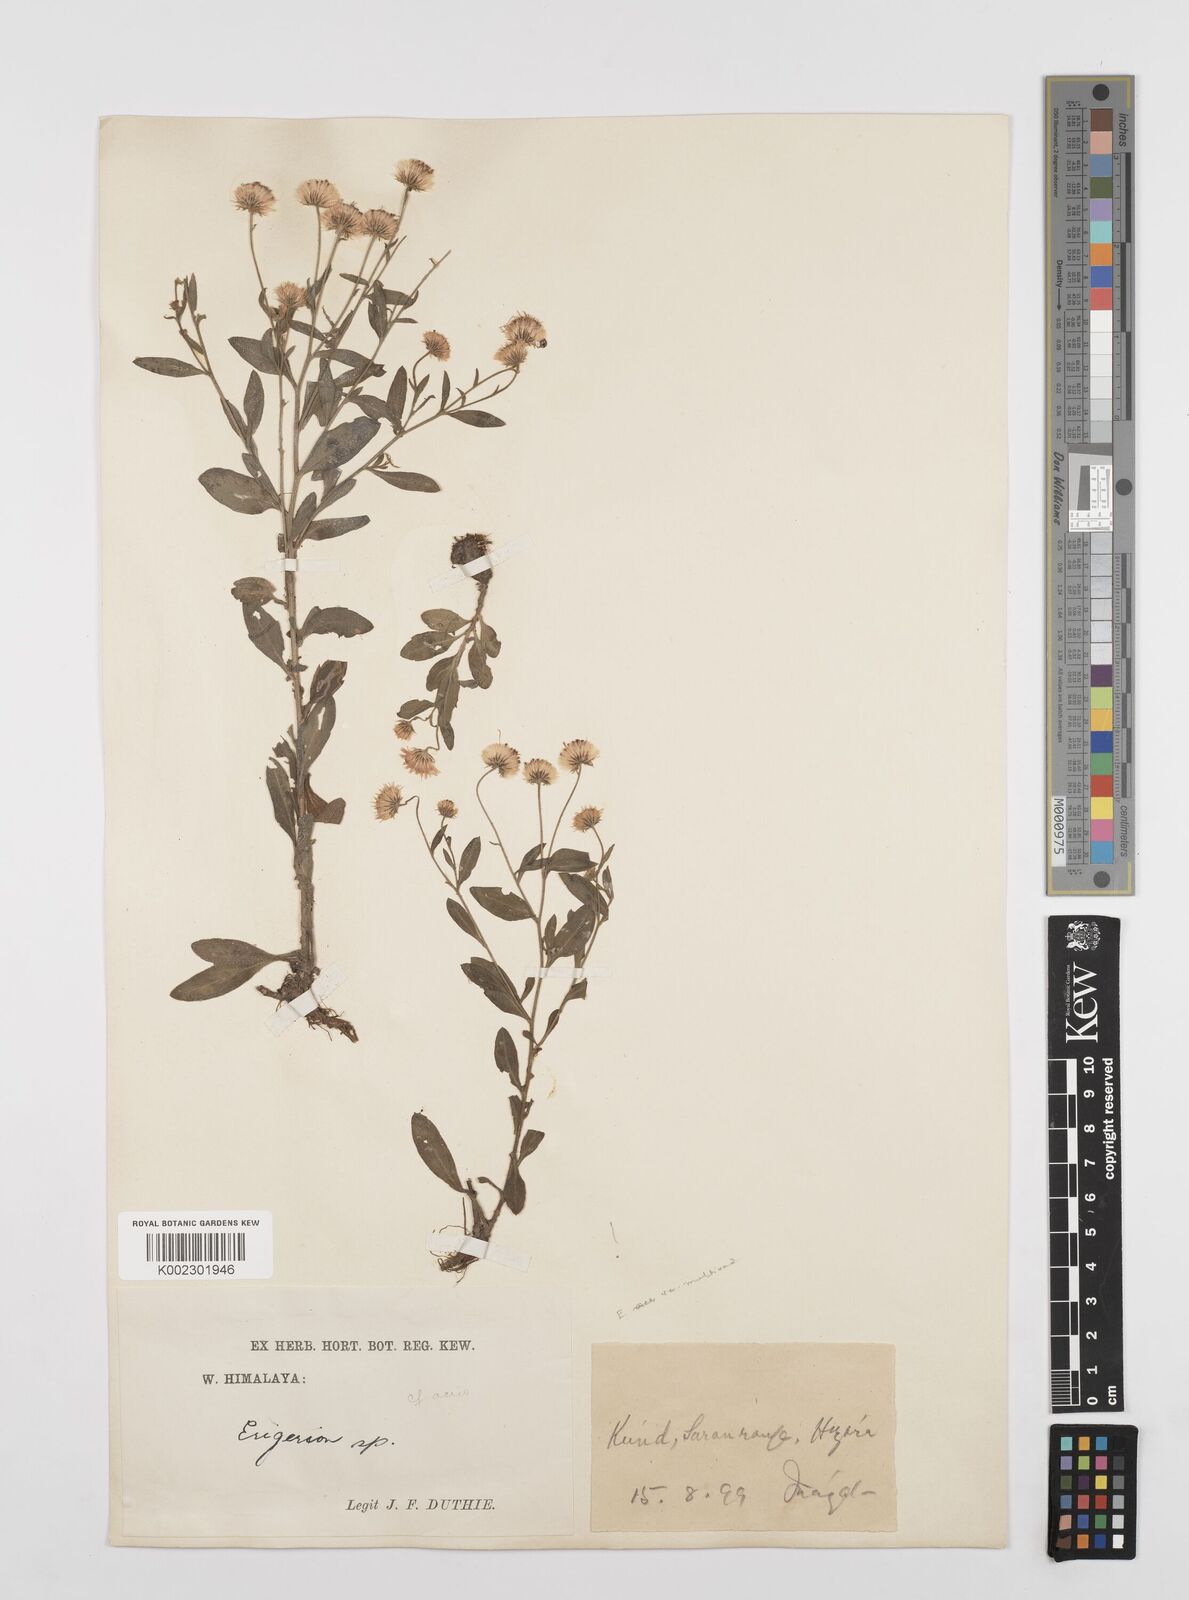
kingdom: Plantae
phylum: Tracheophyta
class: Magnoliopsida
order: Asterales
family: Asteraceae
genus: Erigeron
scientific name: Erigeron alpinus
